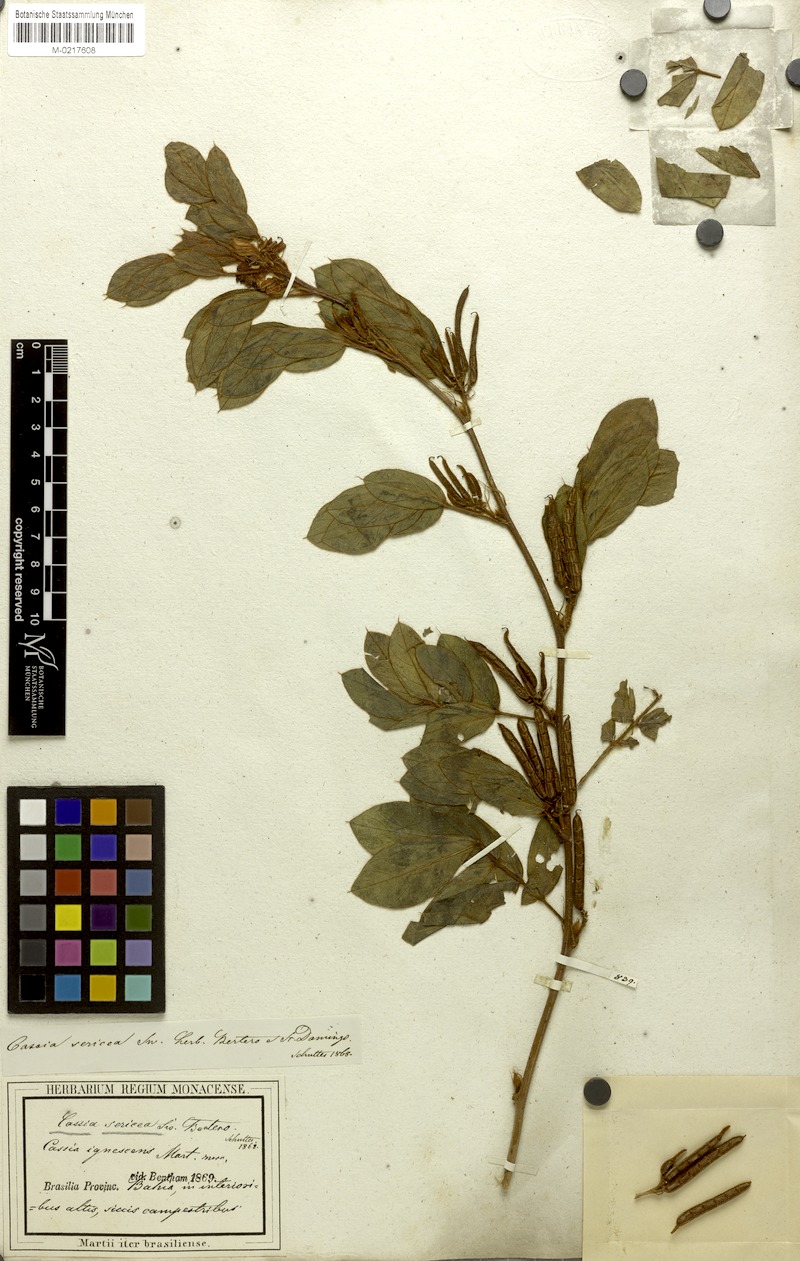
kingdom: Plantae
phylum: Tracheophyta
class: Magnoliopsida
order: Fabales
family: Fabaceae
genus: Senna
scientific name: Senna uniflora
